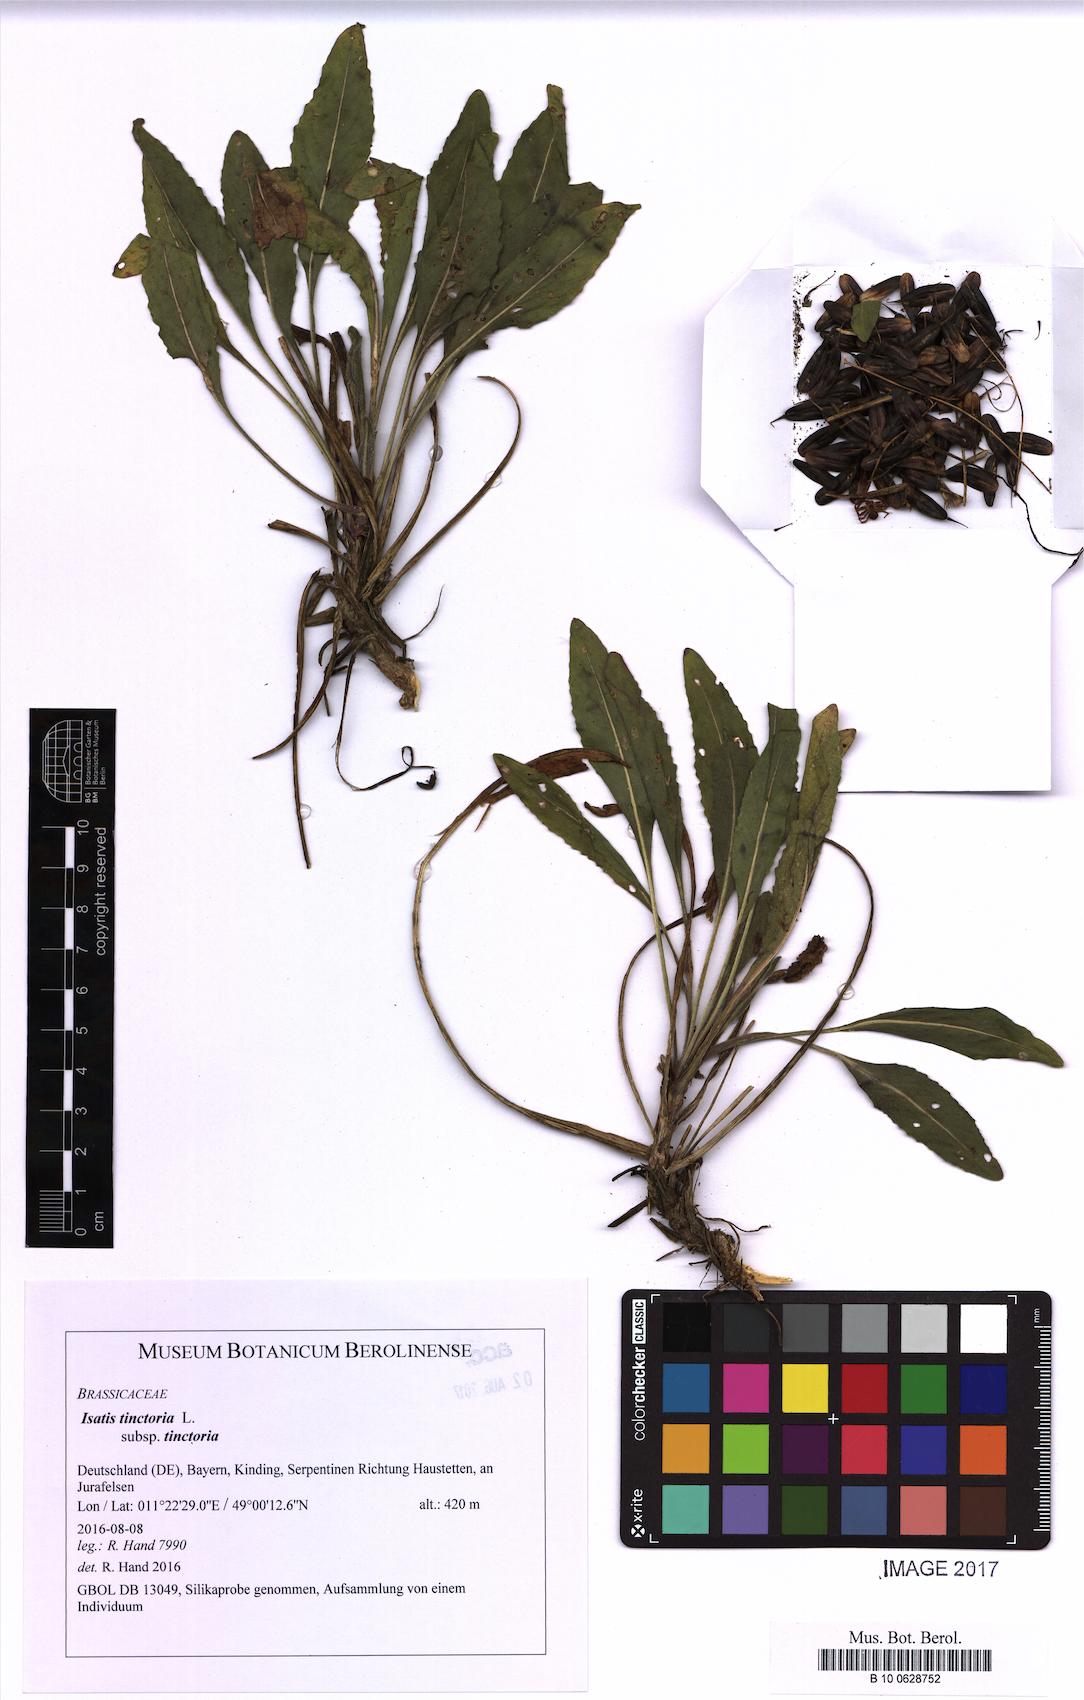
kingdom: Plantae
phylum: Tracheophyta
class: Magnoliopsida
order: Brassicales
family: Brassicaceae
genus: Isatis
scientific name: Isatis tinctoria
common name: Woad
